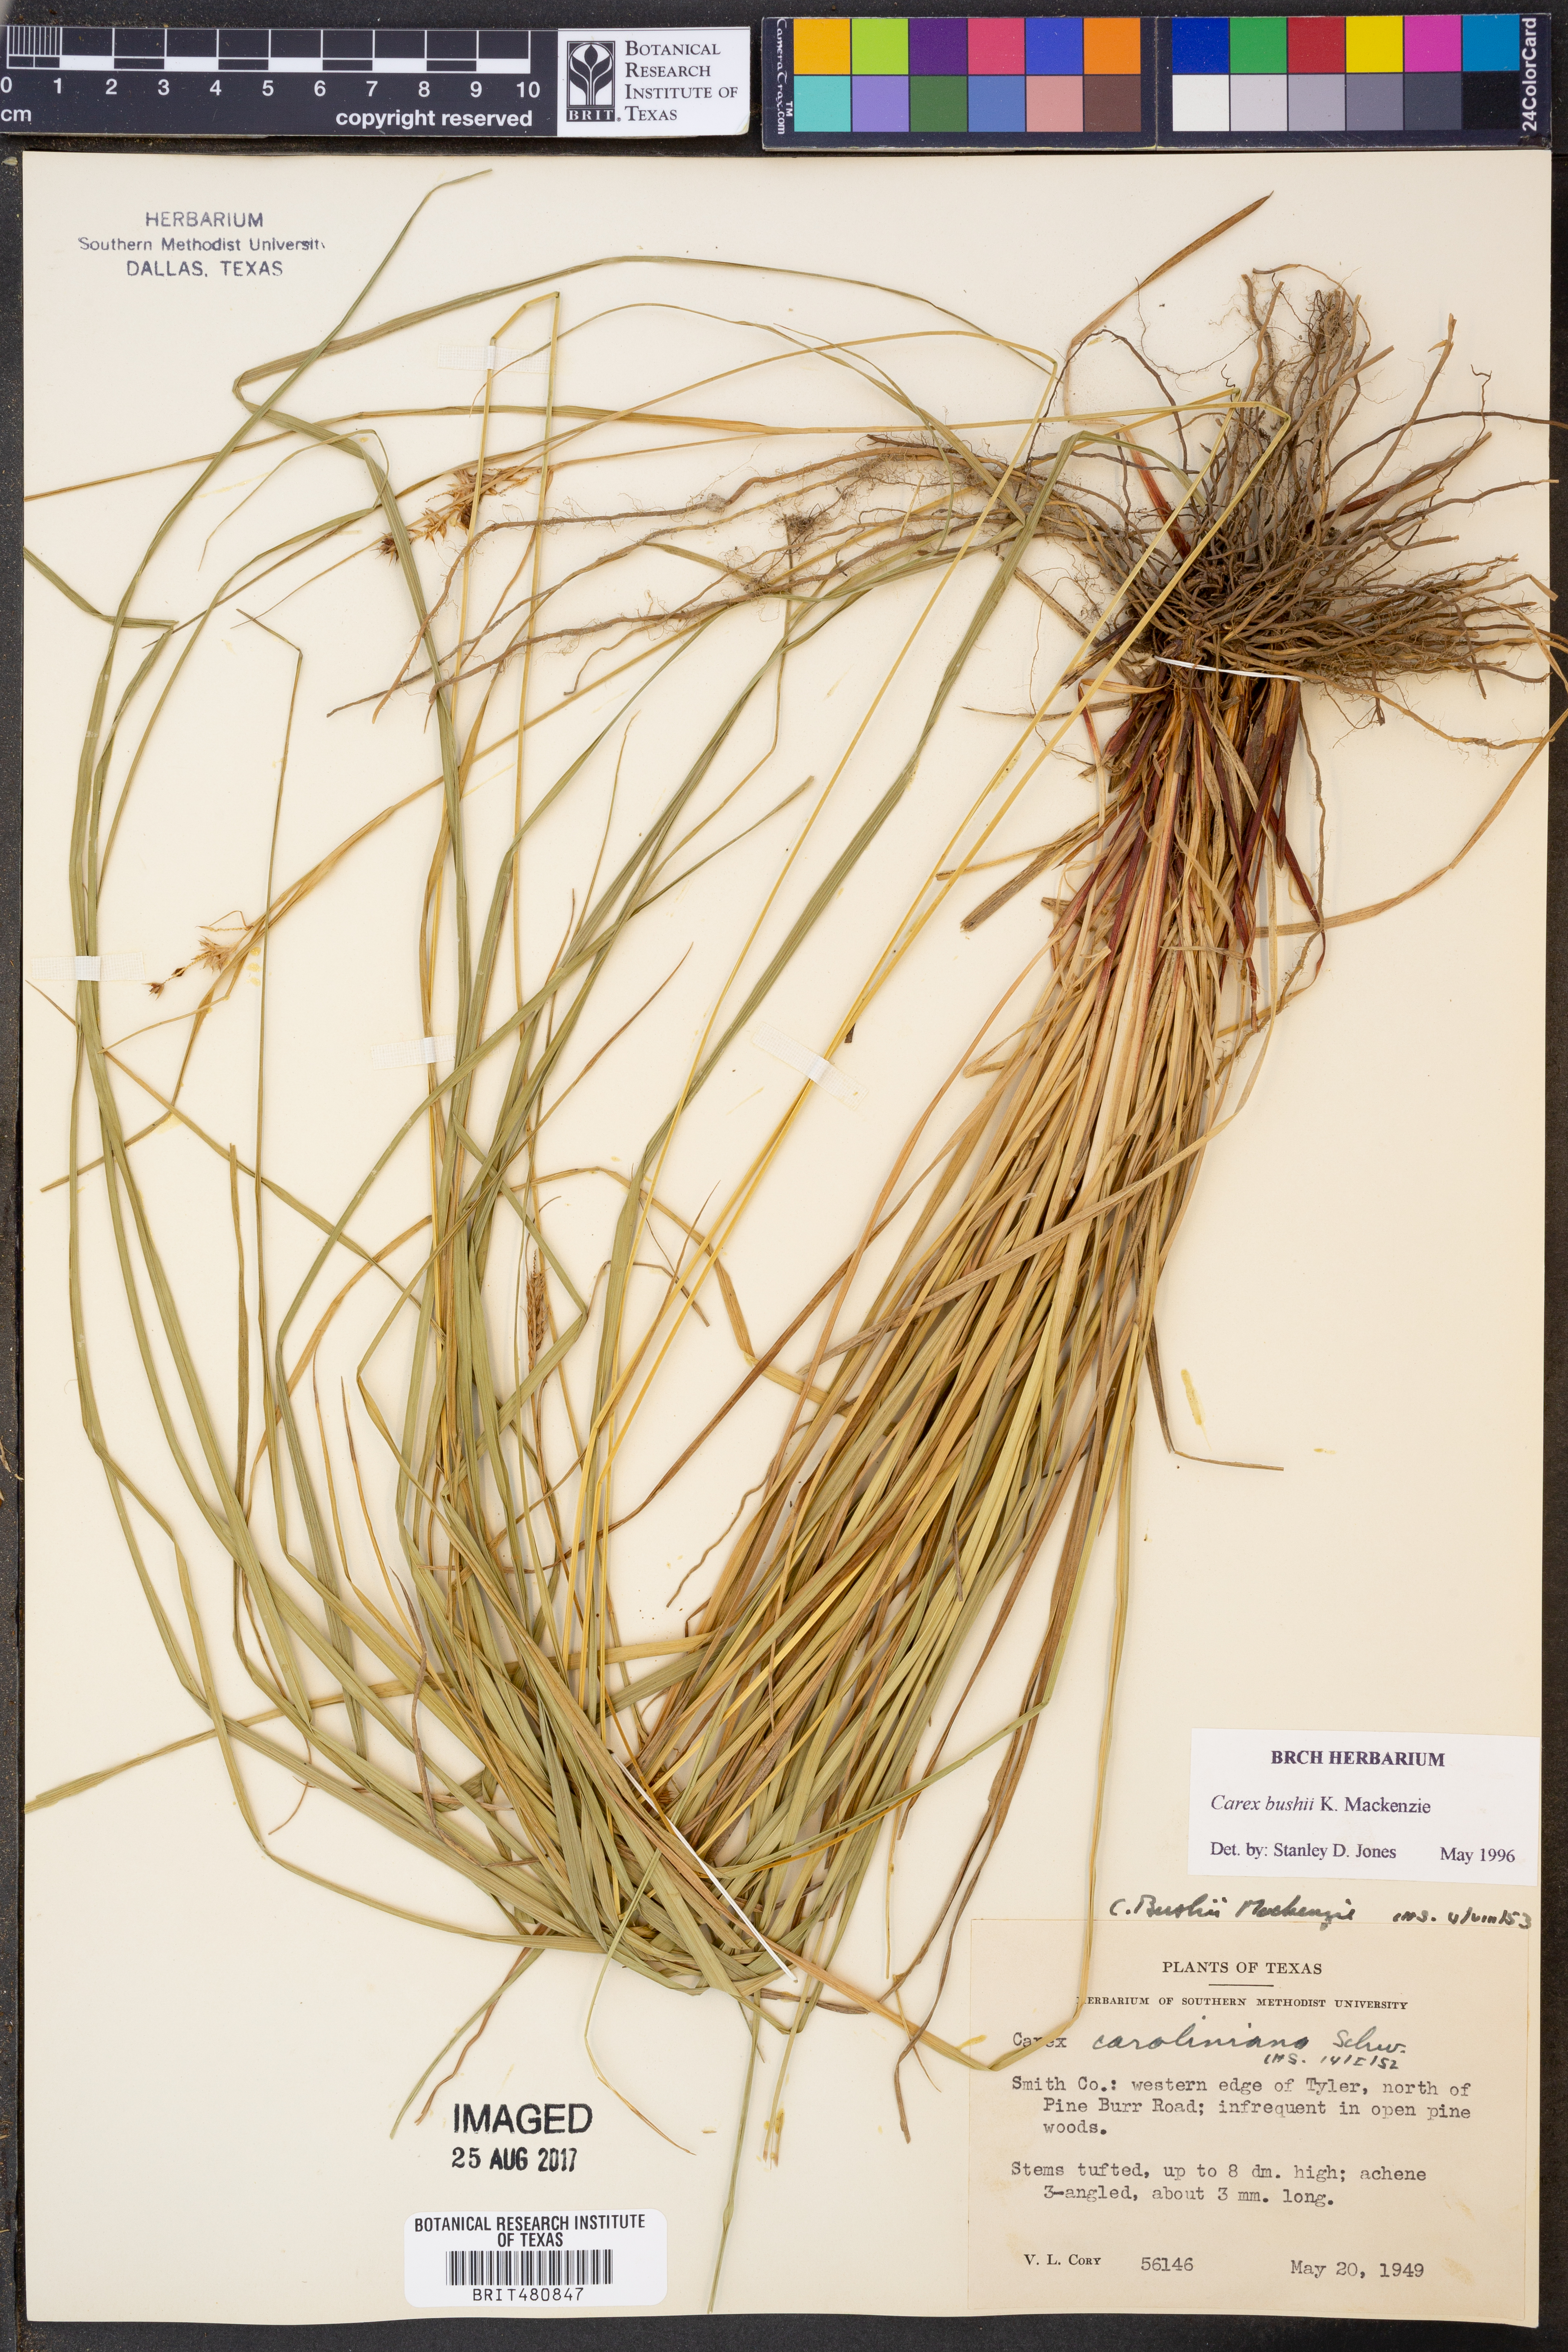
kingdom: Plantae
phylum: Tracheophyta
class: Liliopsida
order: Poales
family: Cyperaceae
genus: Carex
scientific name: Carex bushii
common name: Bush's sedge
